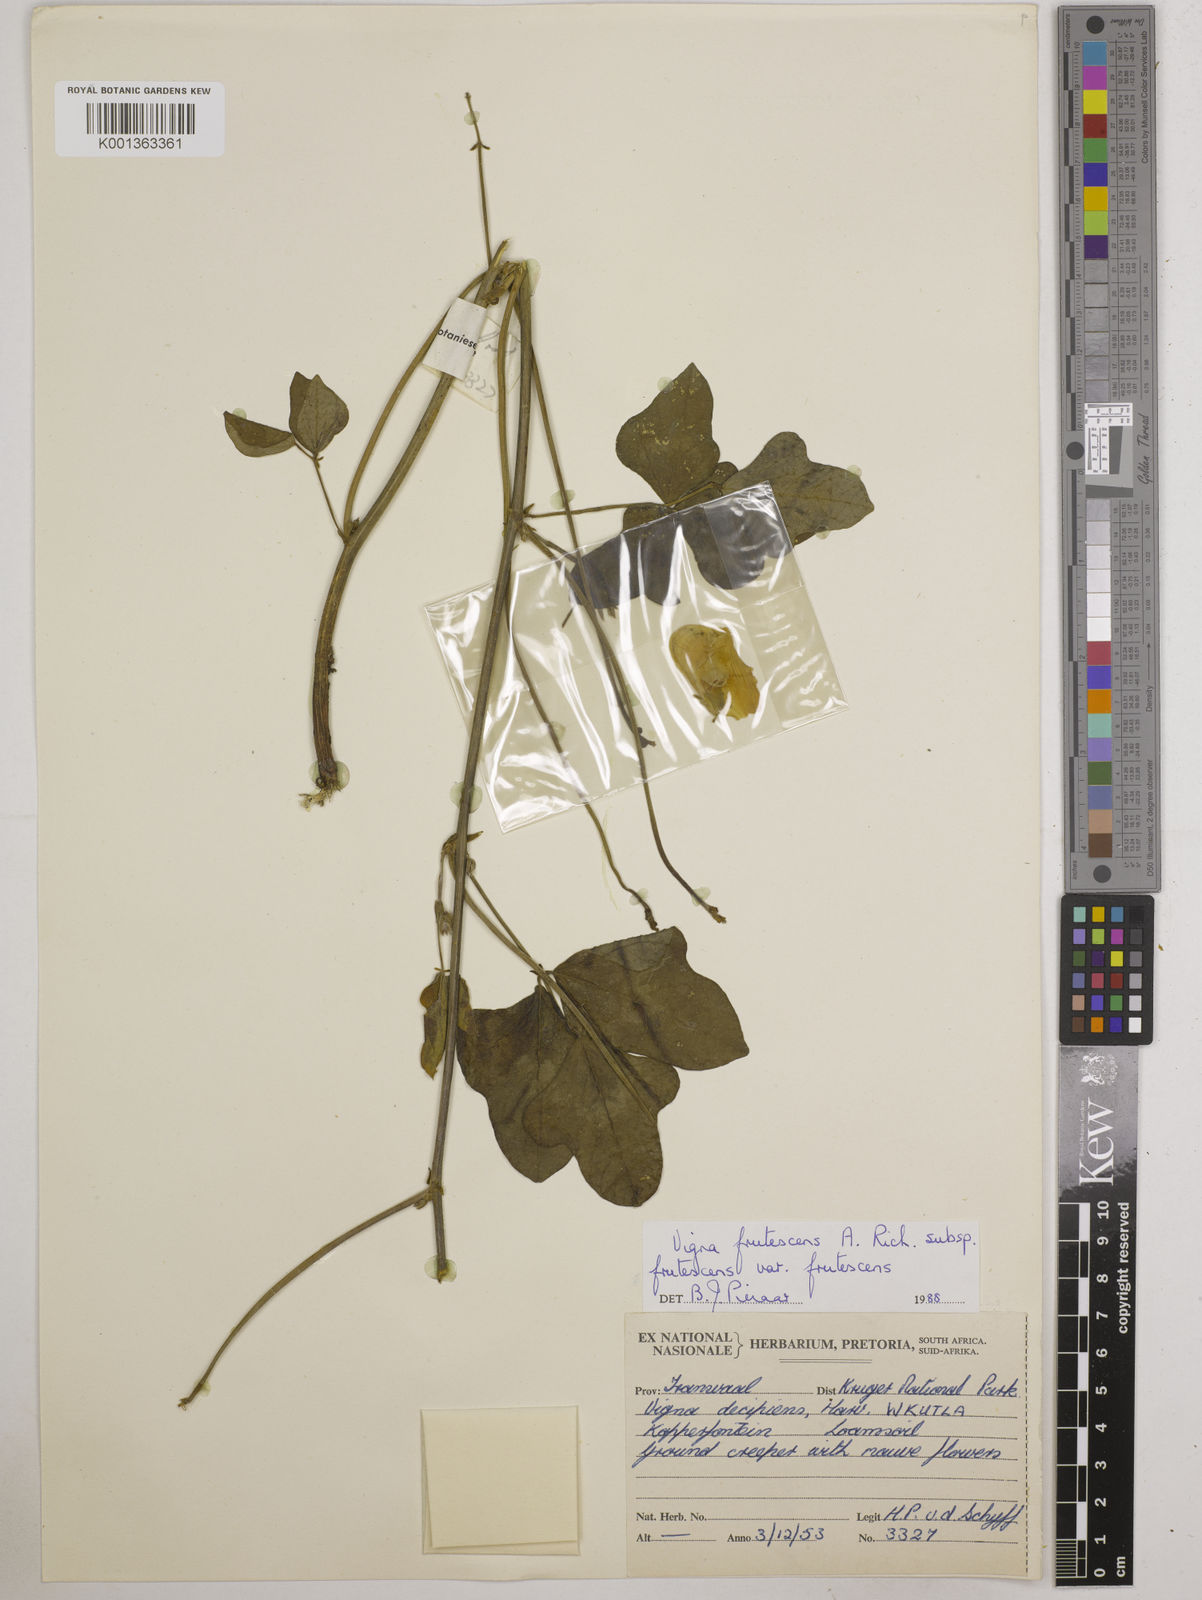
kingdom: Plantae
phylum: Tracheophyta
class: Magnoliopsida
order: Fabales
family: Fabaceae
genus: Vigna
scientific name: Vigna frutescens
